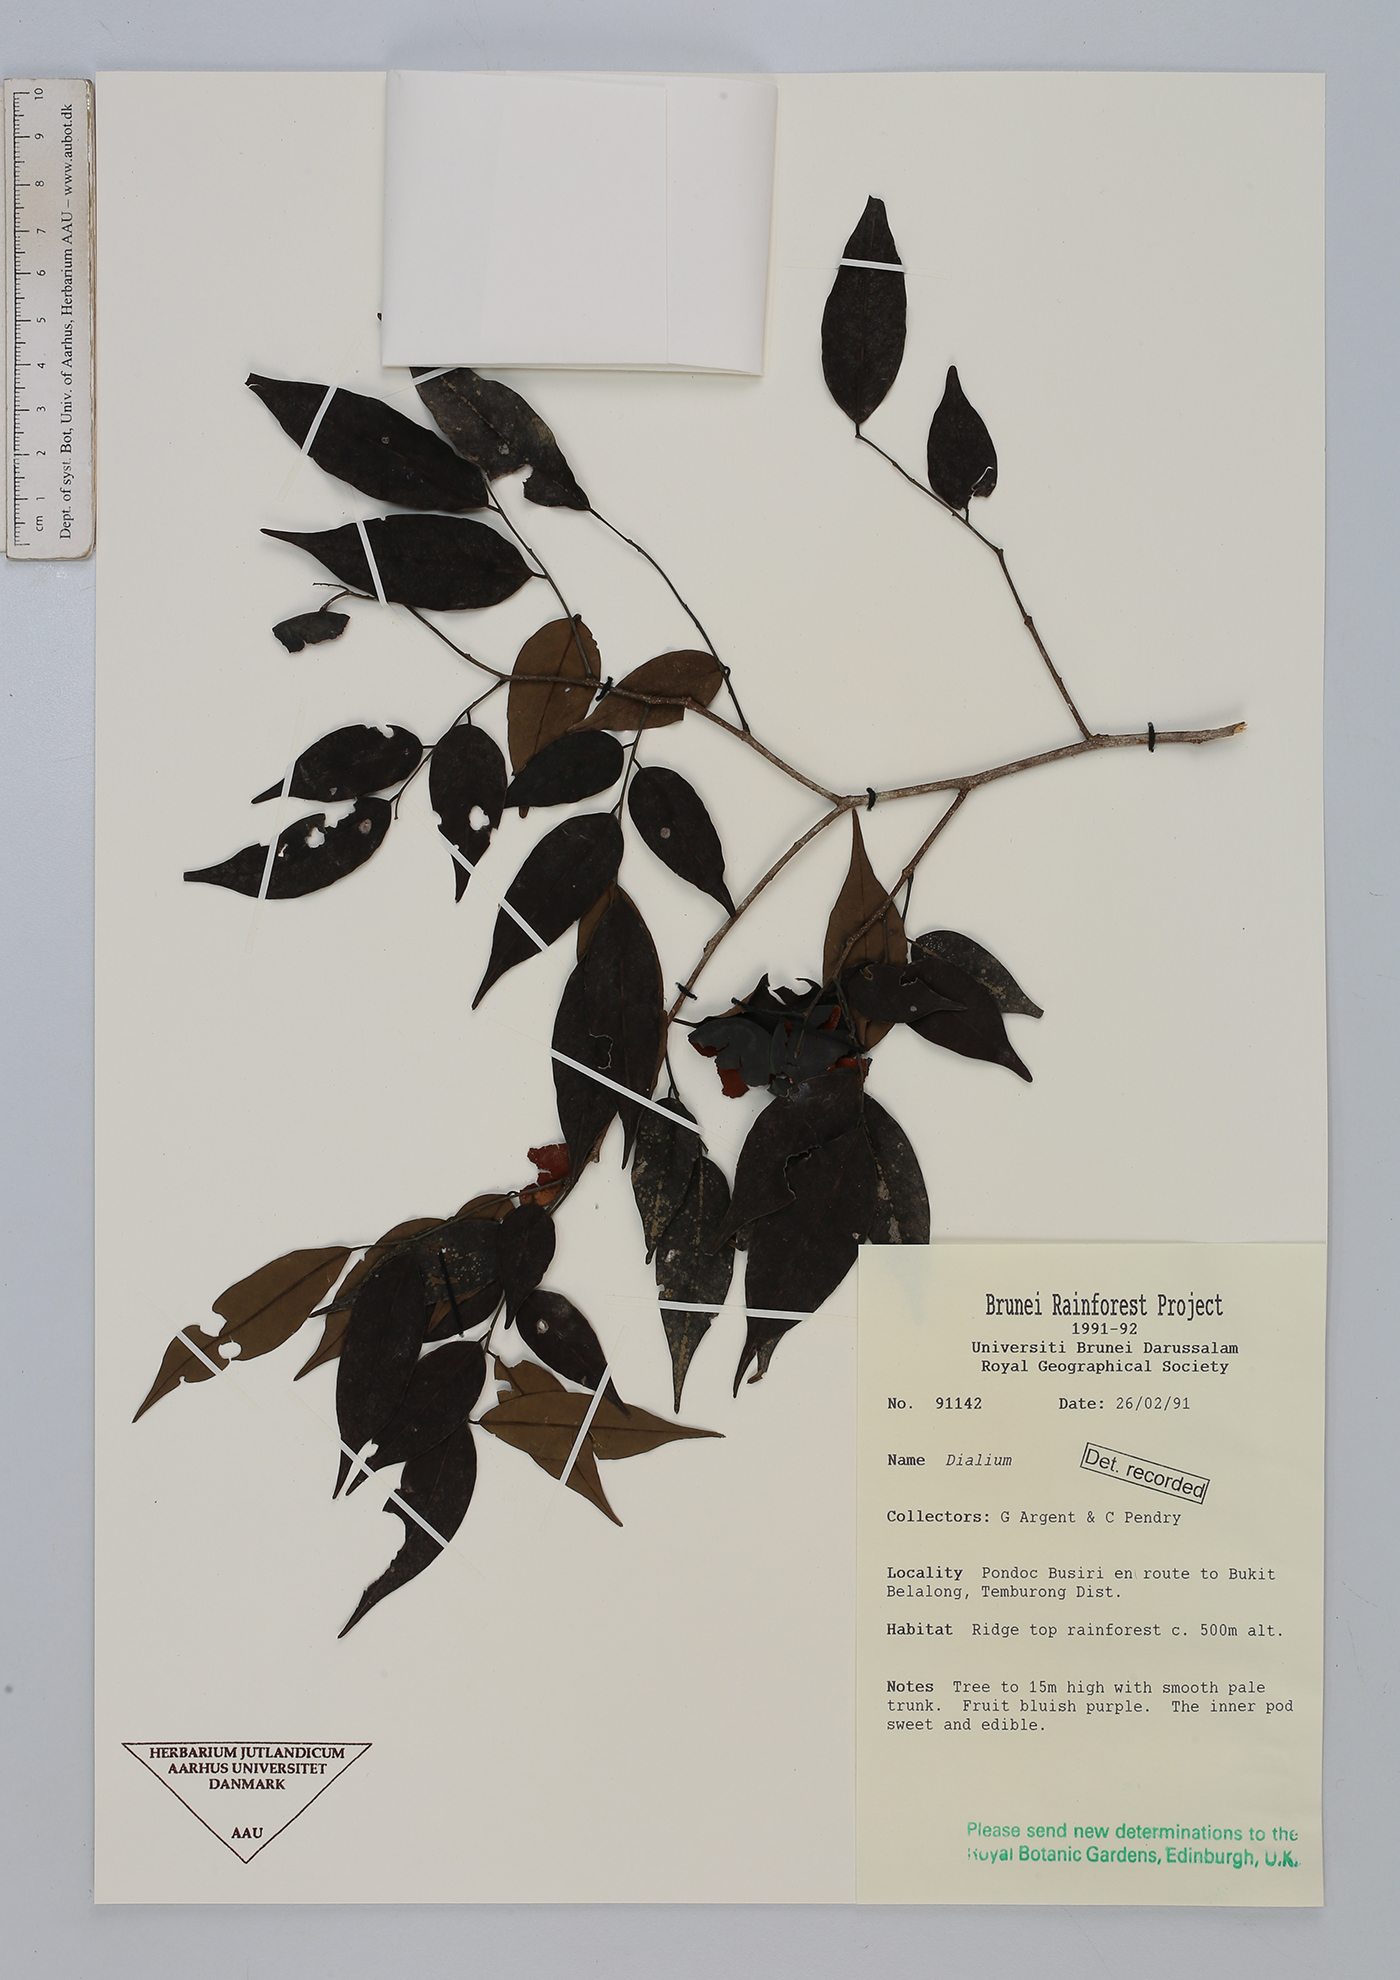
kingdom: Plantae
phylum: Tracheophyta
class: Magnoliopsida
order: Fabales
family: Fabaceae
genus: Dialium
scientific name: Dialium
